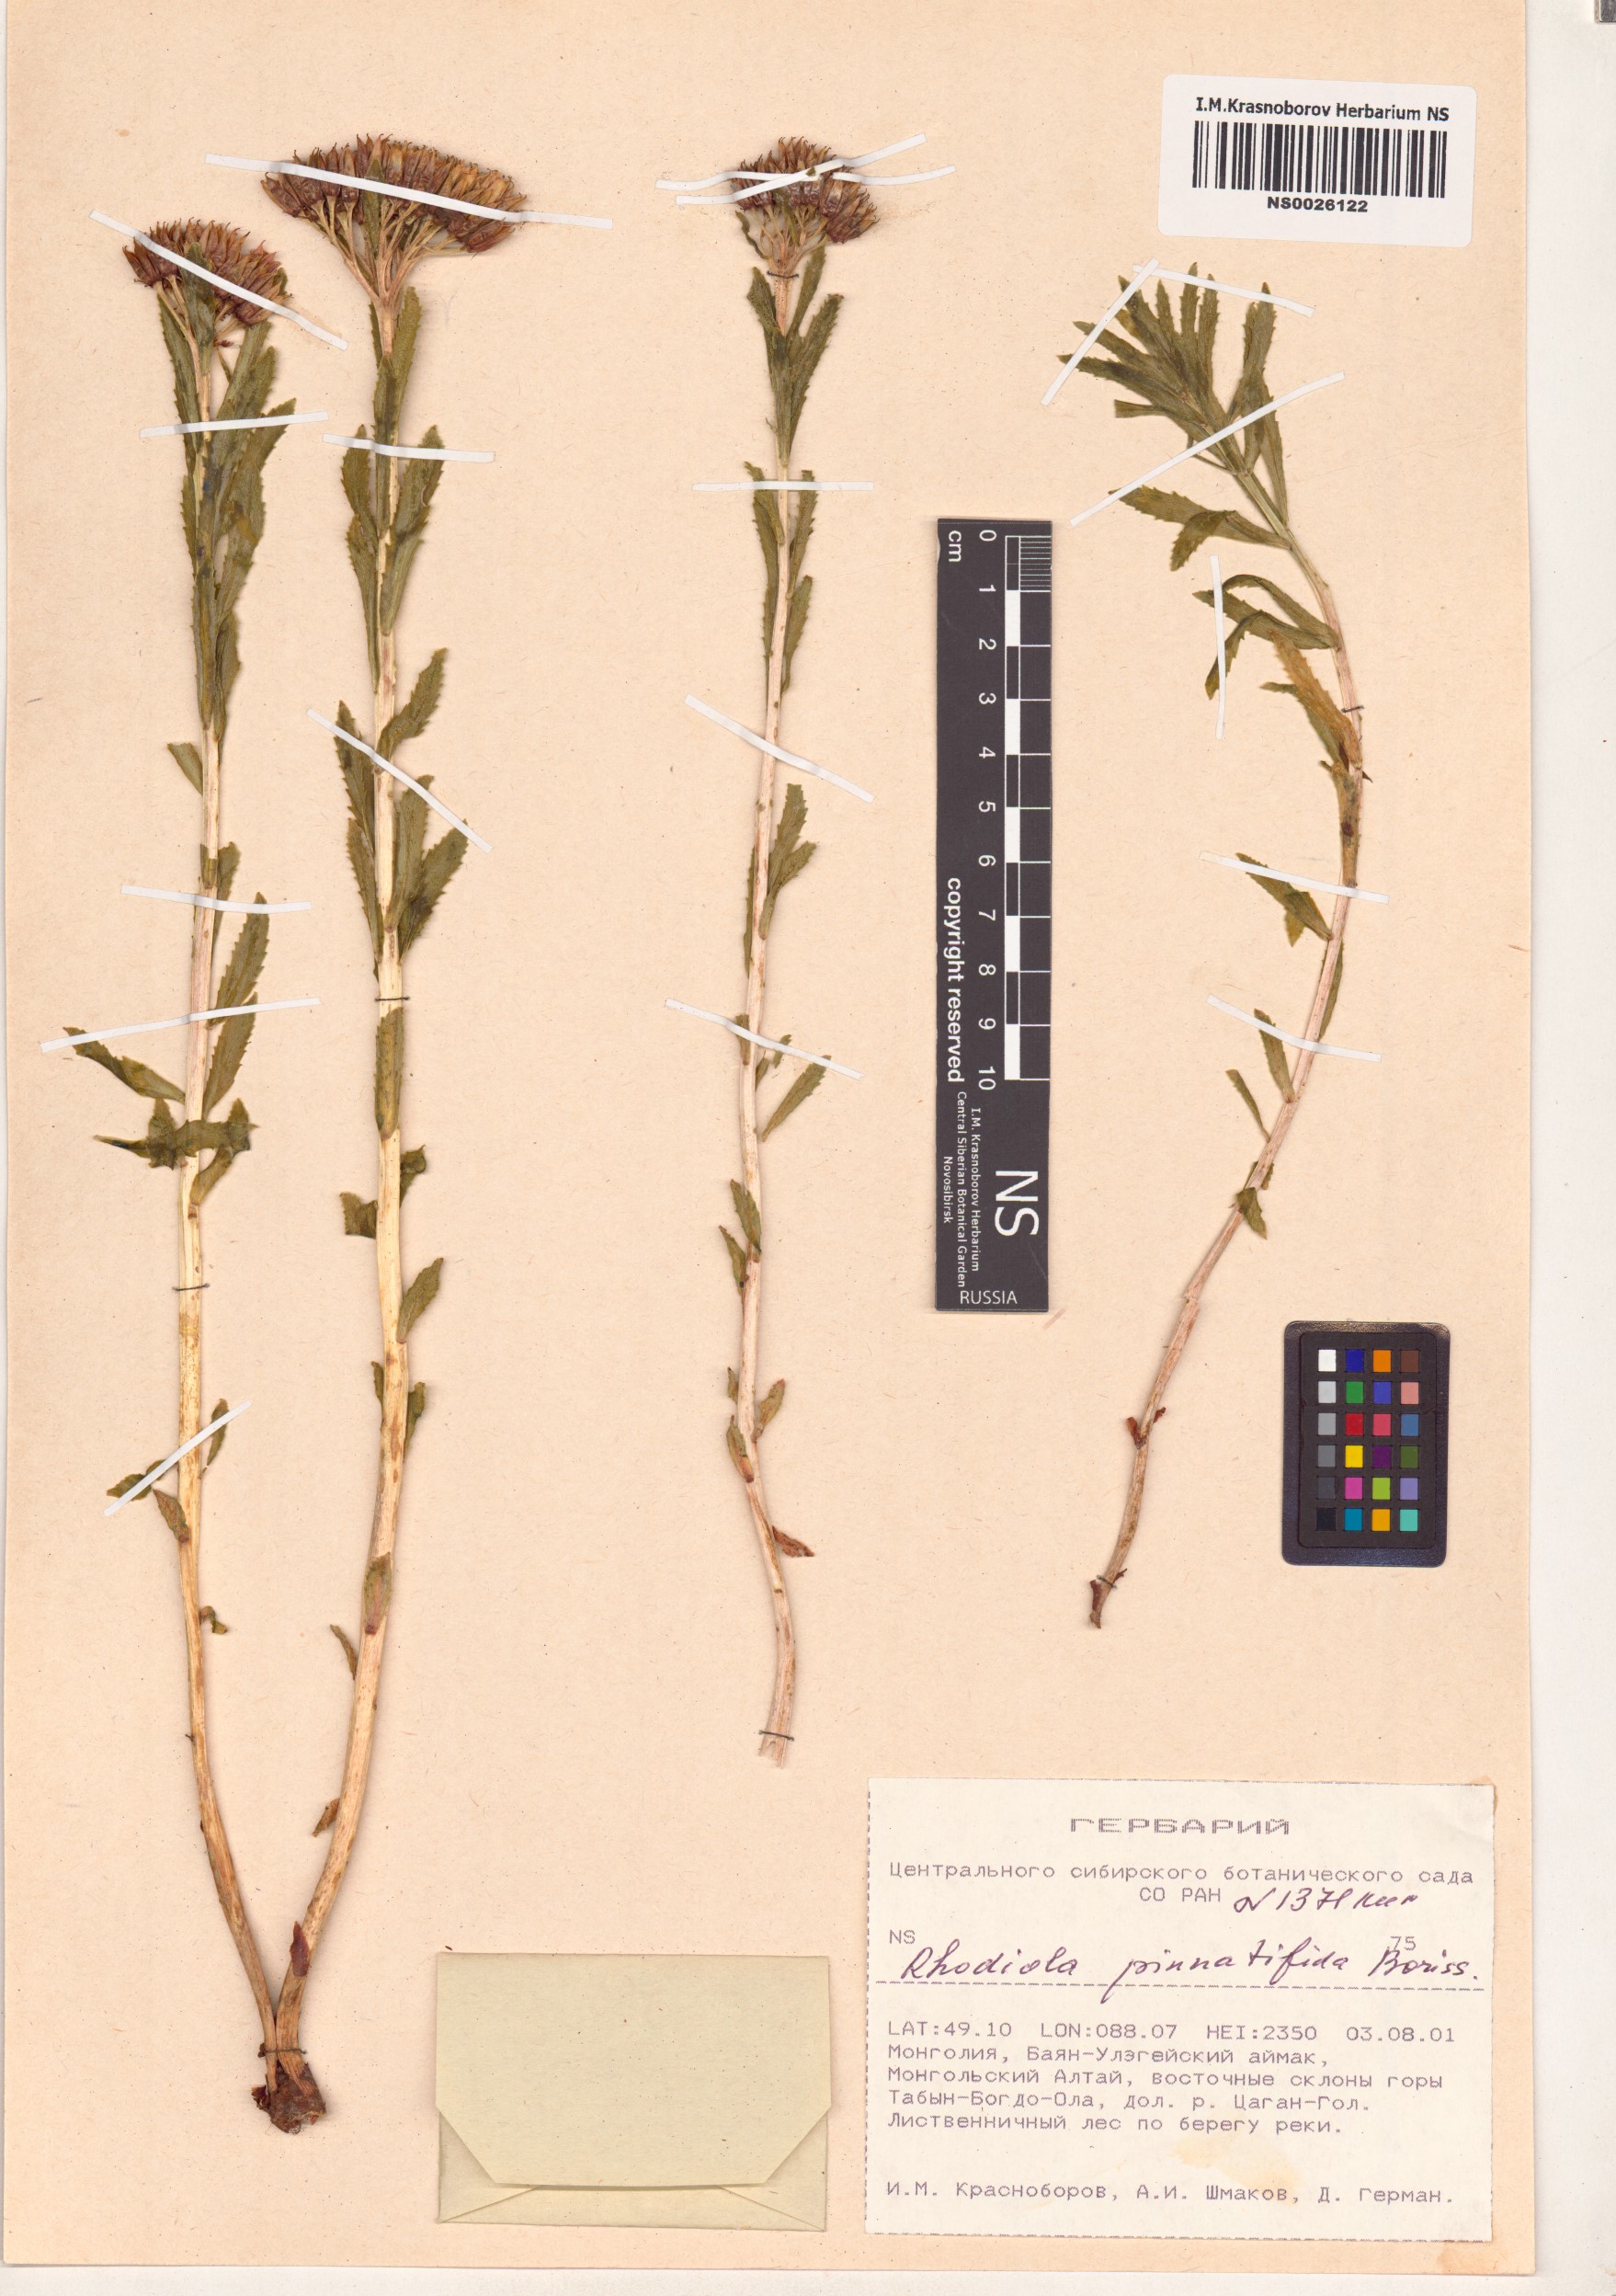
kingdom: Plantae
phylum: Tracheophyta
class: Magnoliopsida
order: Saxifragales
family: Crassulaceae
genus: Rhodiola
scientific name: Rhodiola stephani
